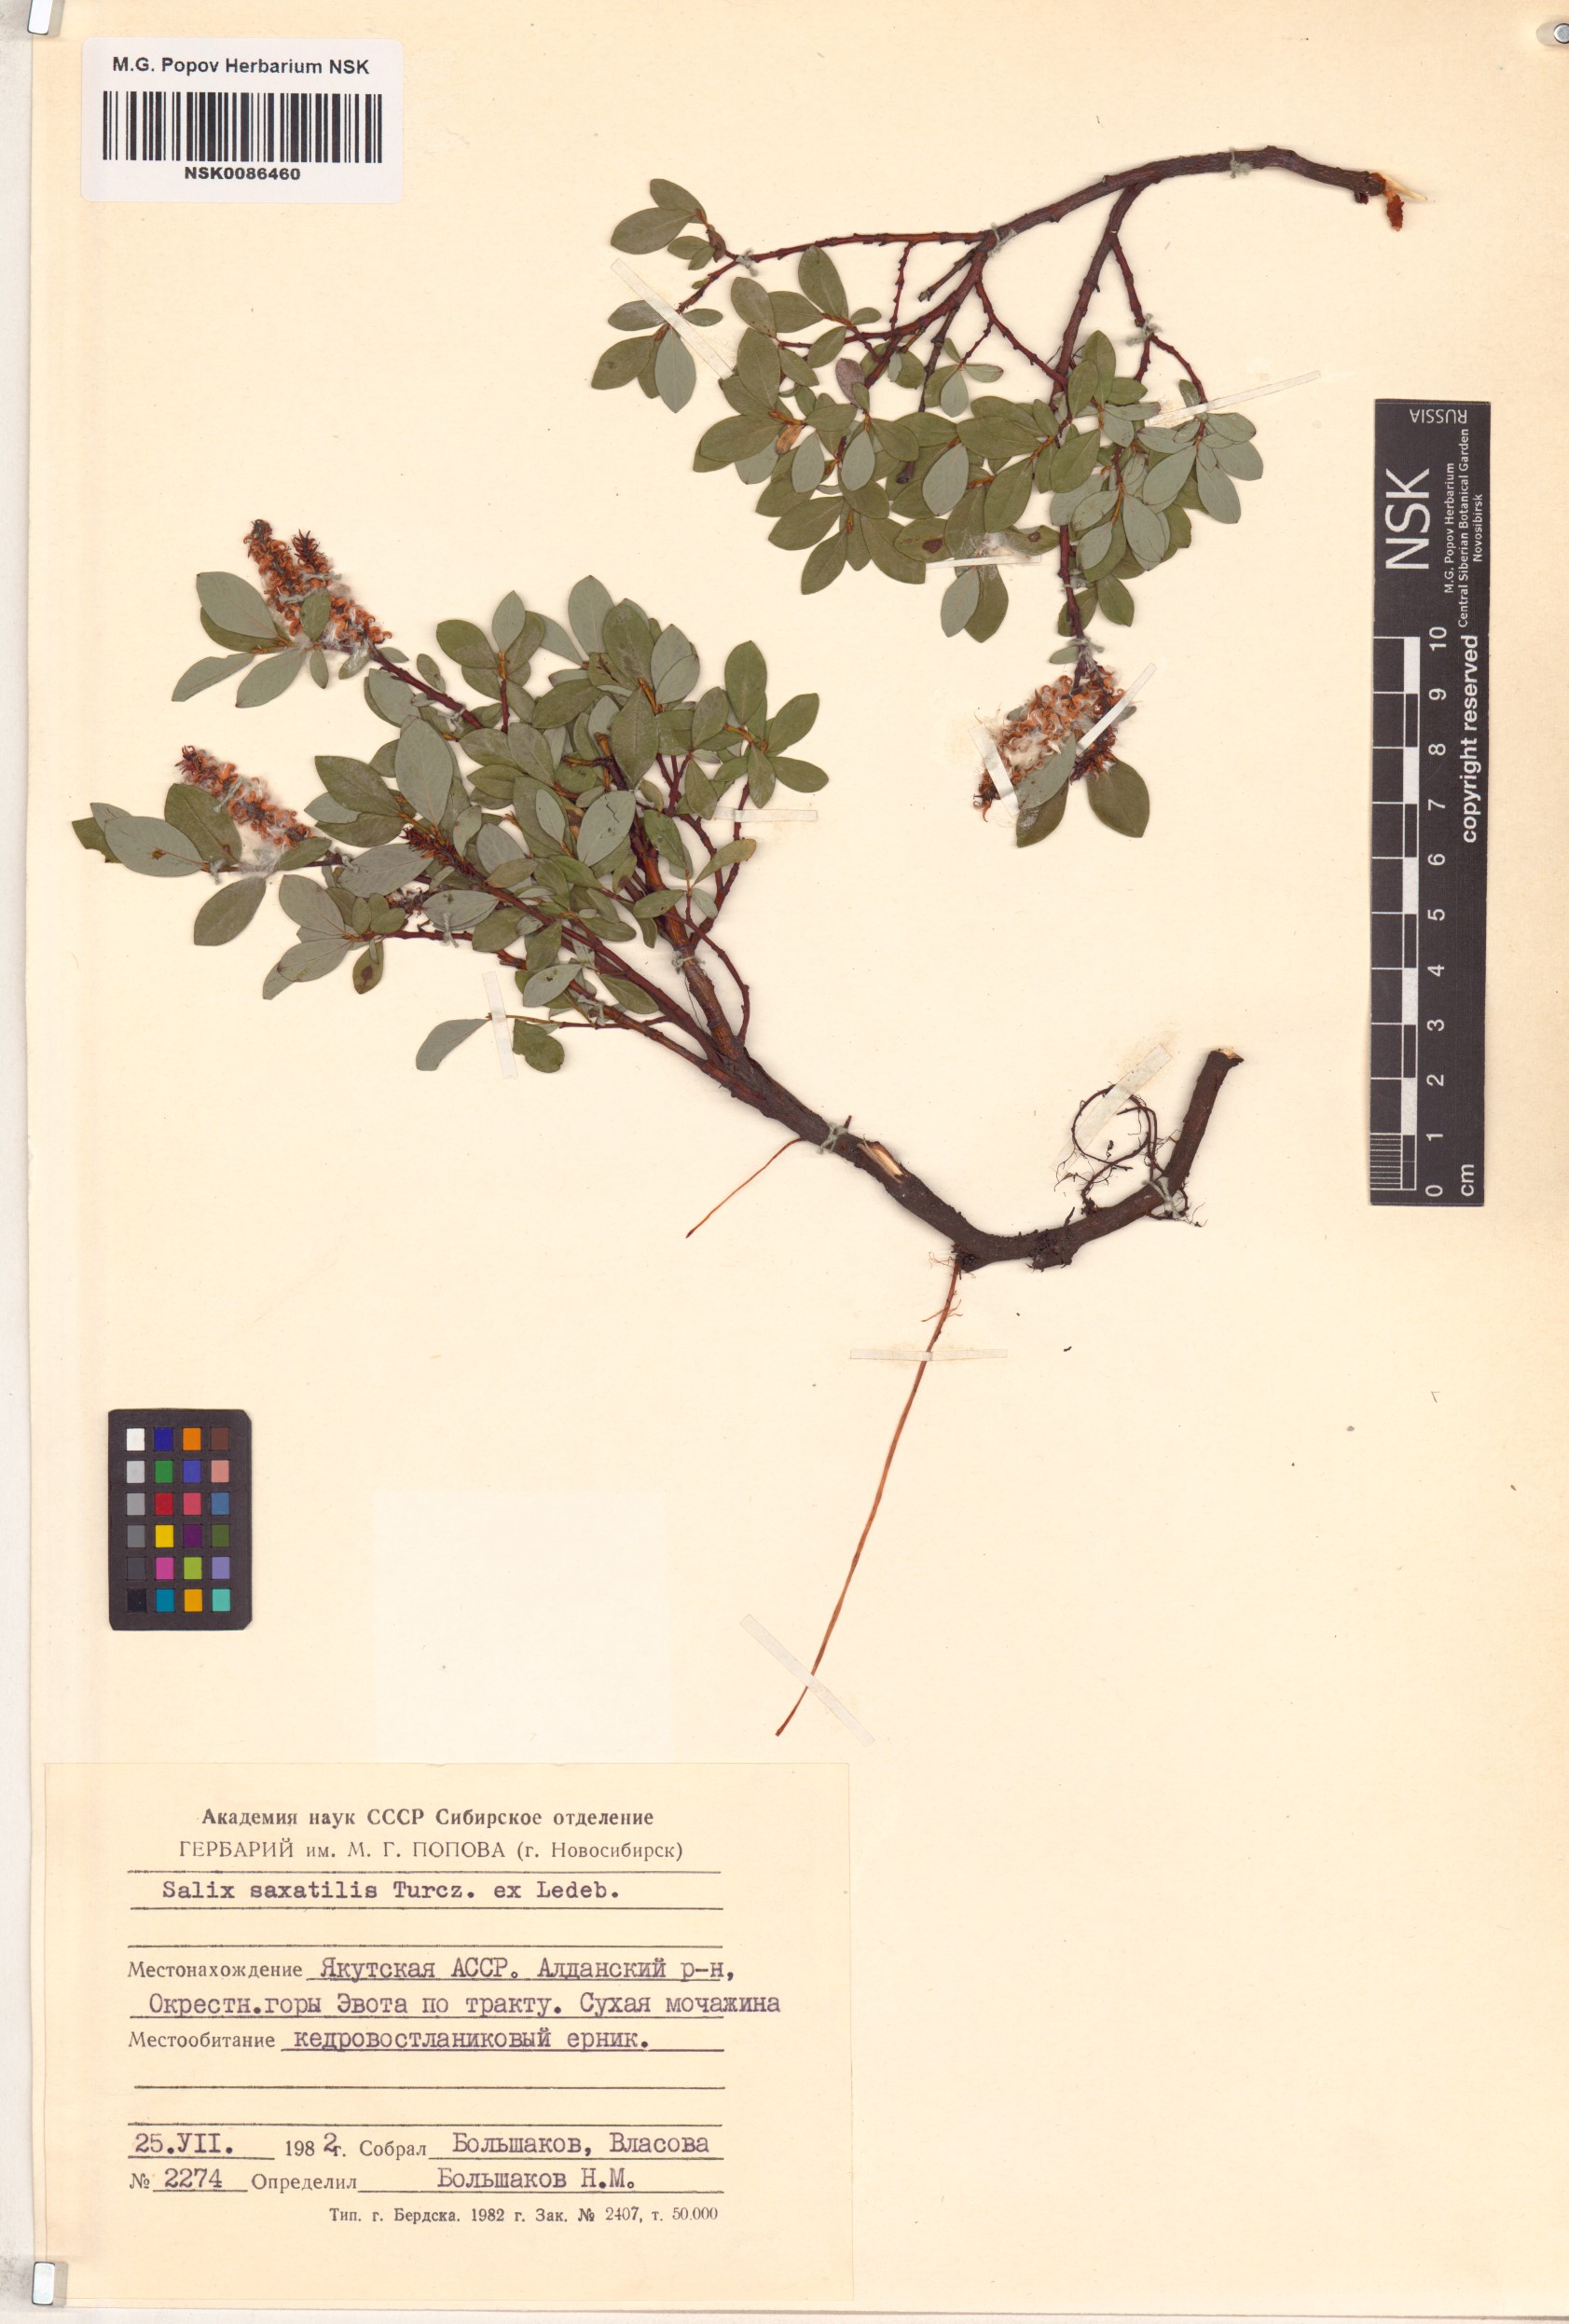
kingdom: Plantae
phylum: Tracheophyta
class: Magnoliopsida
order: Malpighiales
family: Salicaceae
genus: Salix
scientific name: Salix saxatilis
